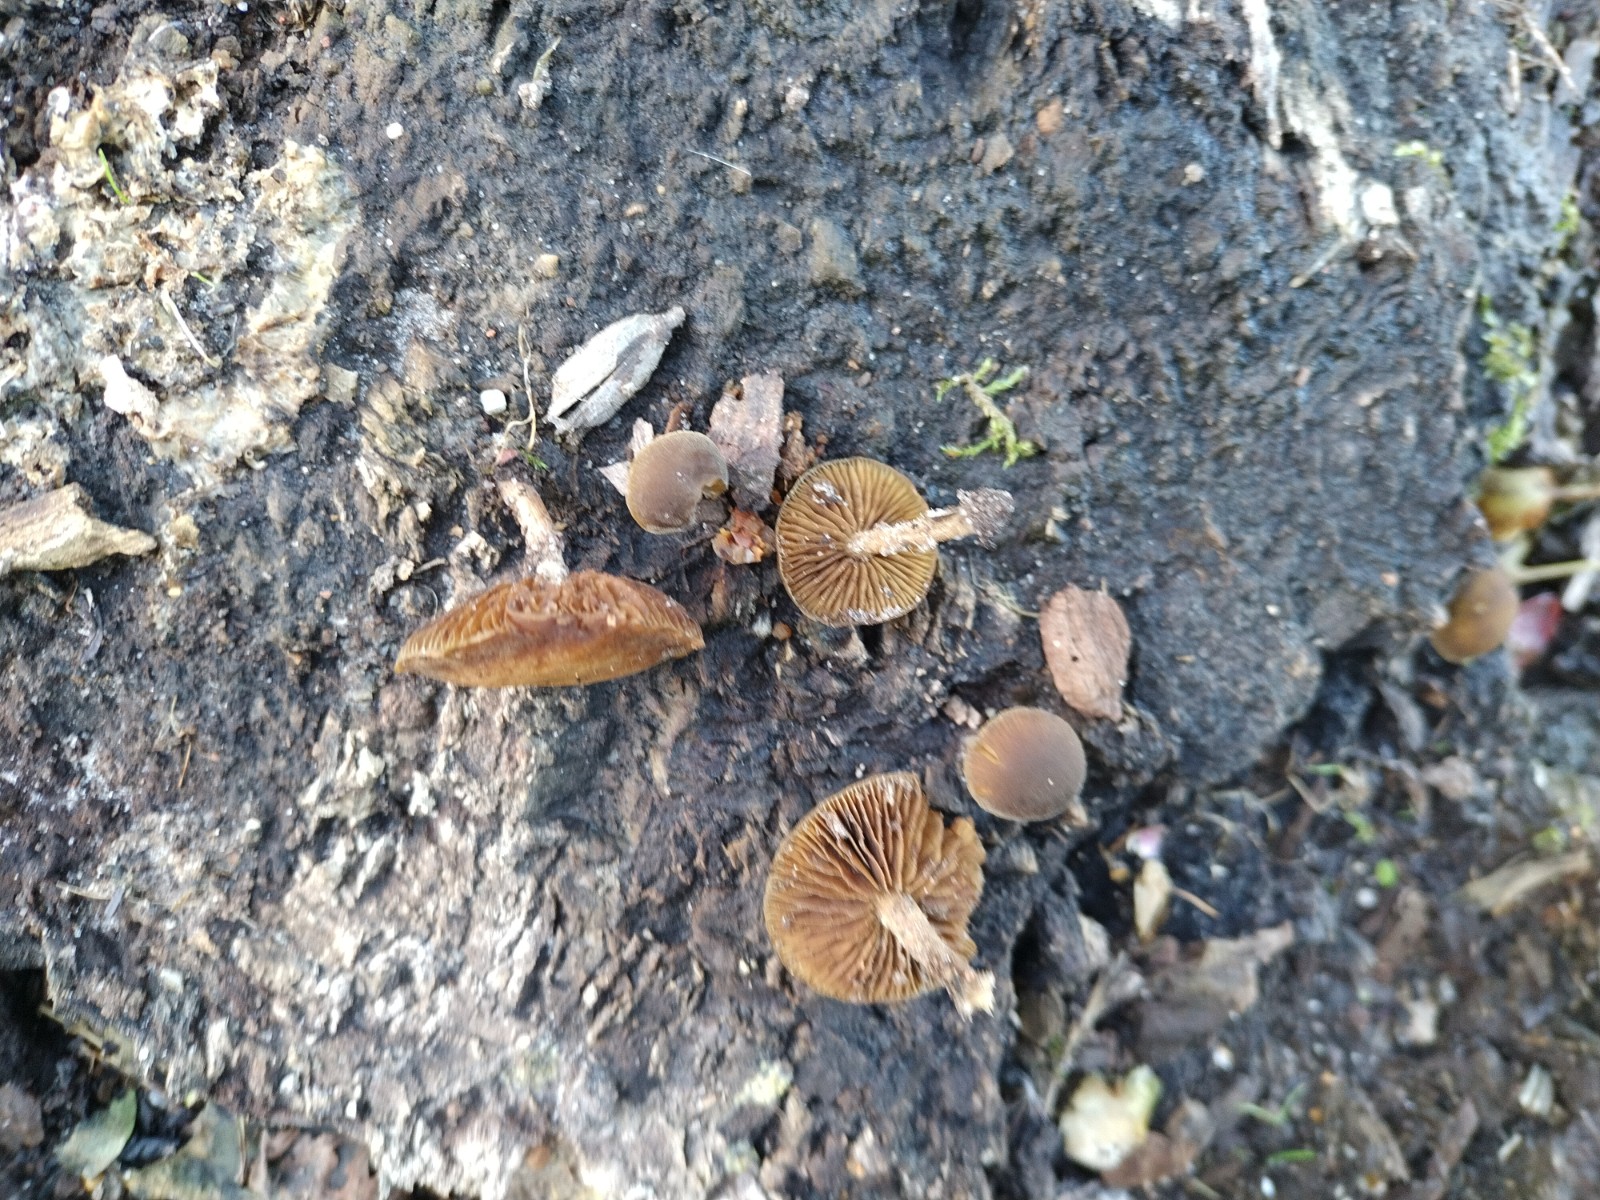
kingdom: Fungi
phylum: Basidiomycota
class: Agaricomycetes
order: Agaricales
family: Crepidotaceae
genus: Simocybe
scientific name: Simocybe
